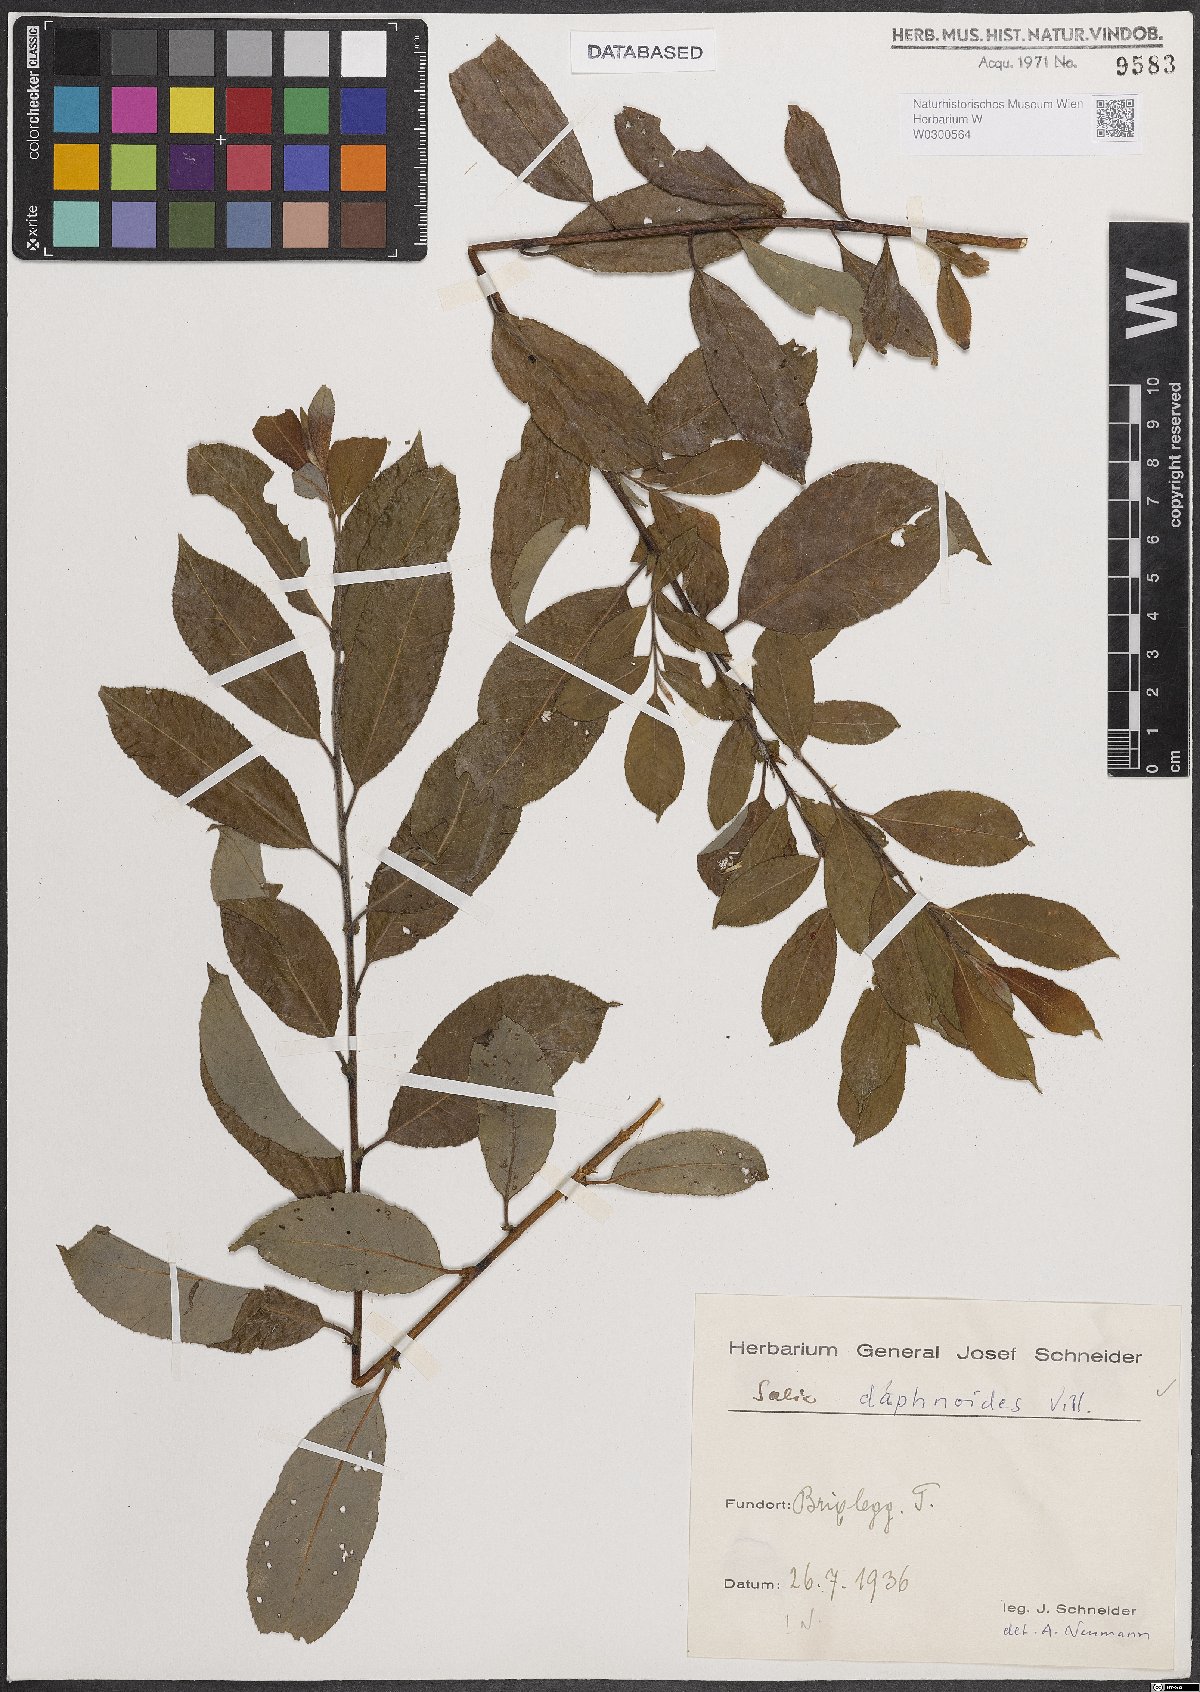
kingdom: Plantae
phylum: Tracheophyta
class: Magnoliopsida
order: Malpighiales
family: Salicaceae
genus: Salix
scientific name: Salix daphnoides
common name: European violet-willow
